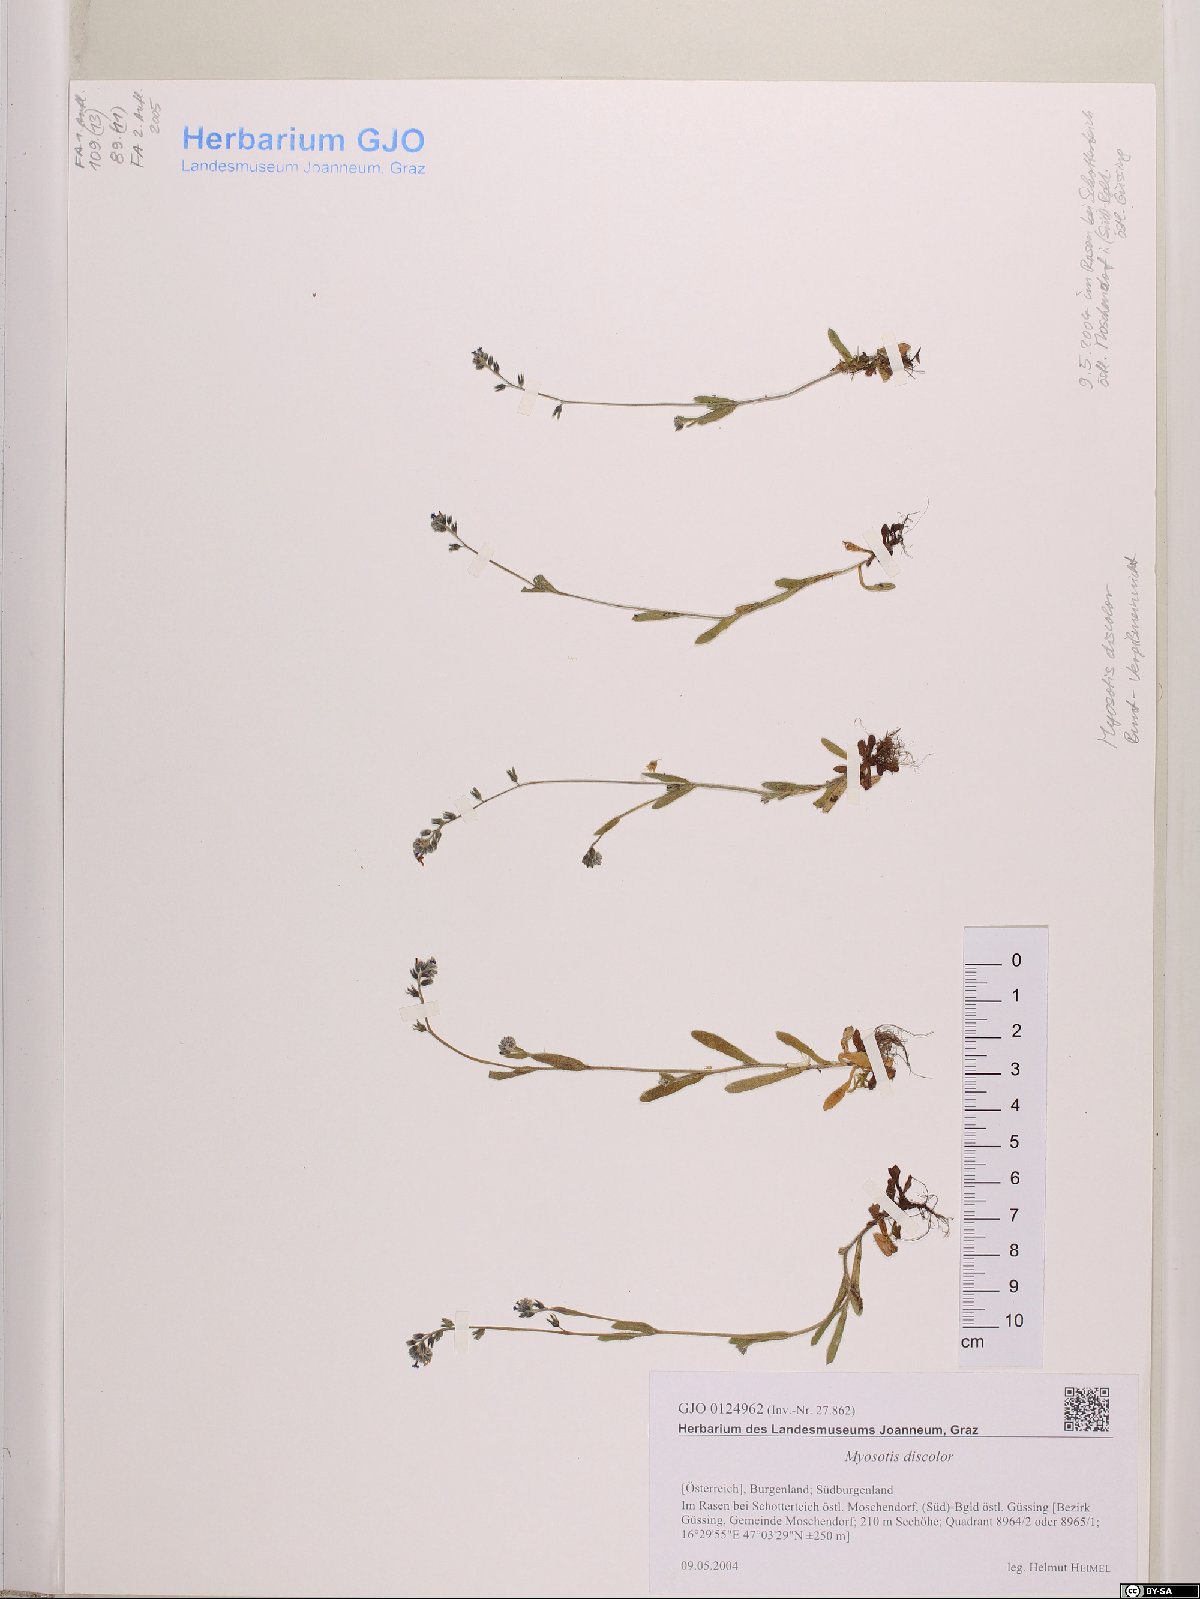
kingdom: Plantae
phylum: Tracheophyta
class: Magnoliopsida
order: Boraginales
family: Boraginaceae
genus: Myosotis
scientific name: Myosotis discolor
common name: Changing forget-me-not
